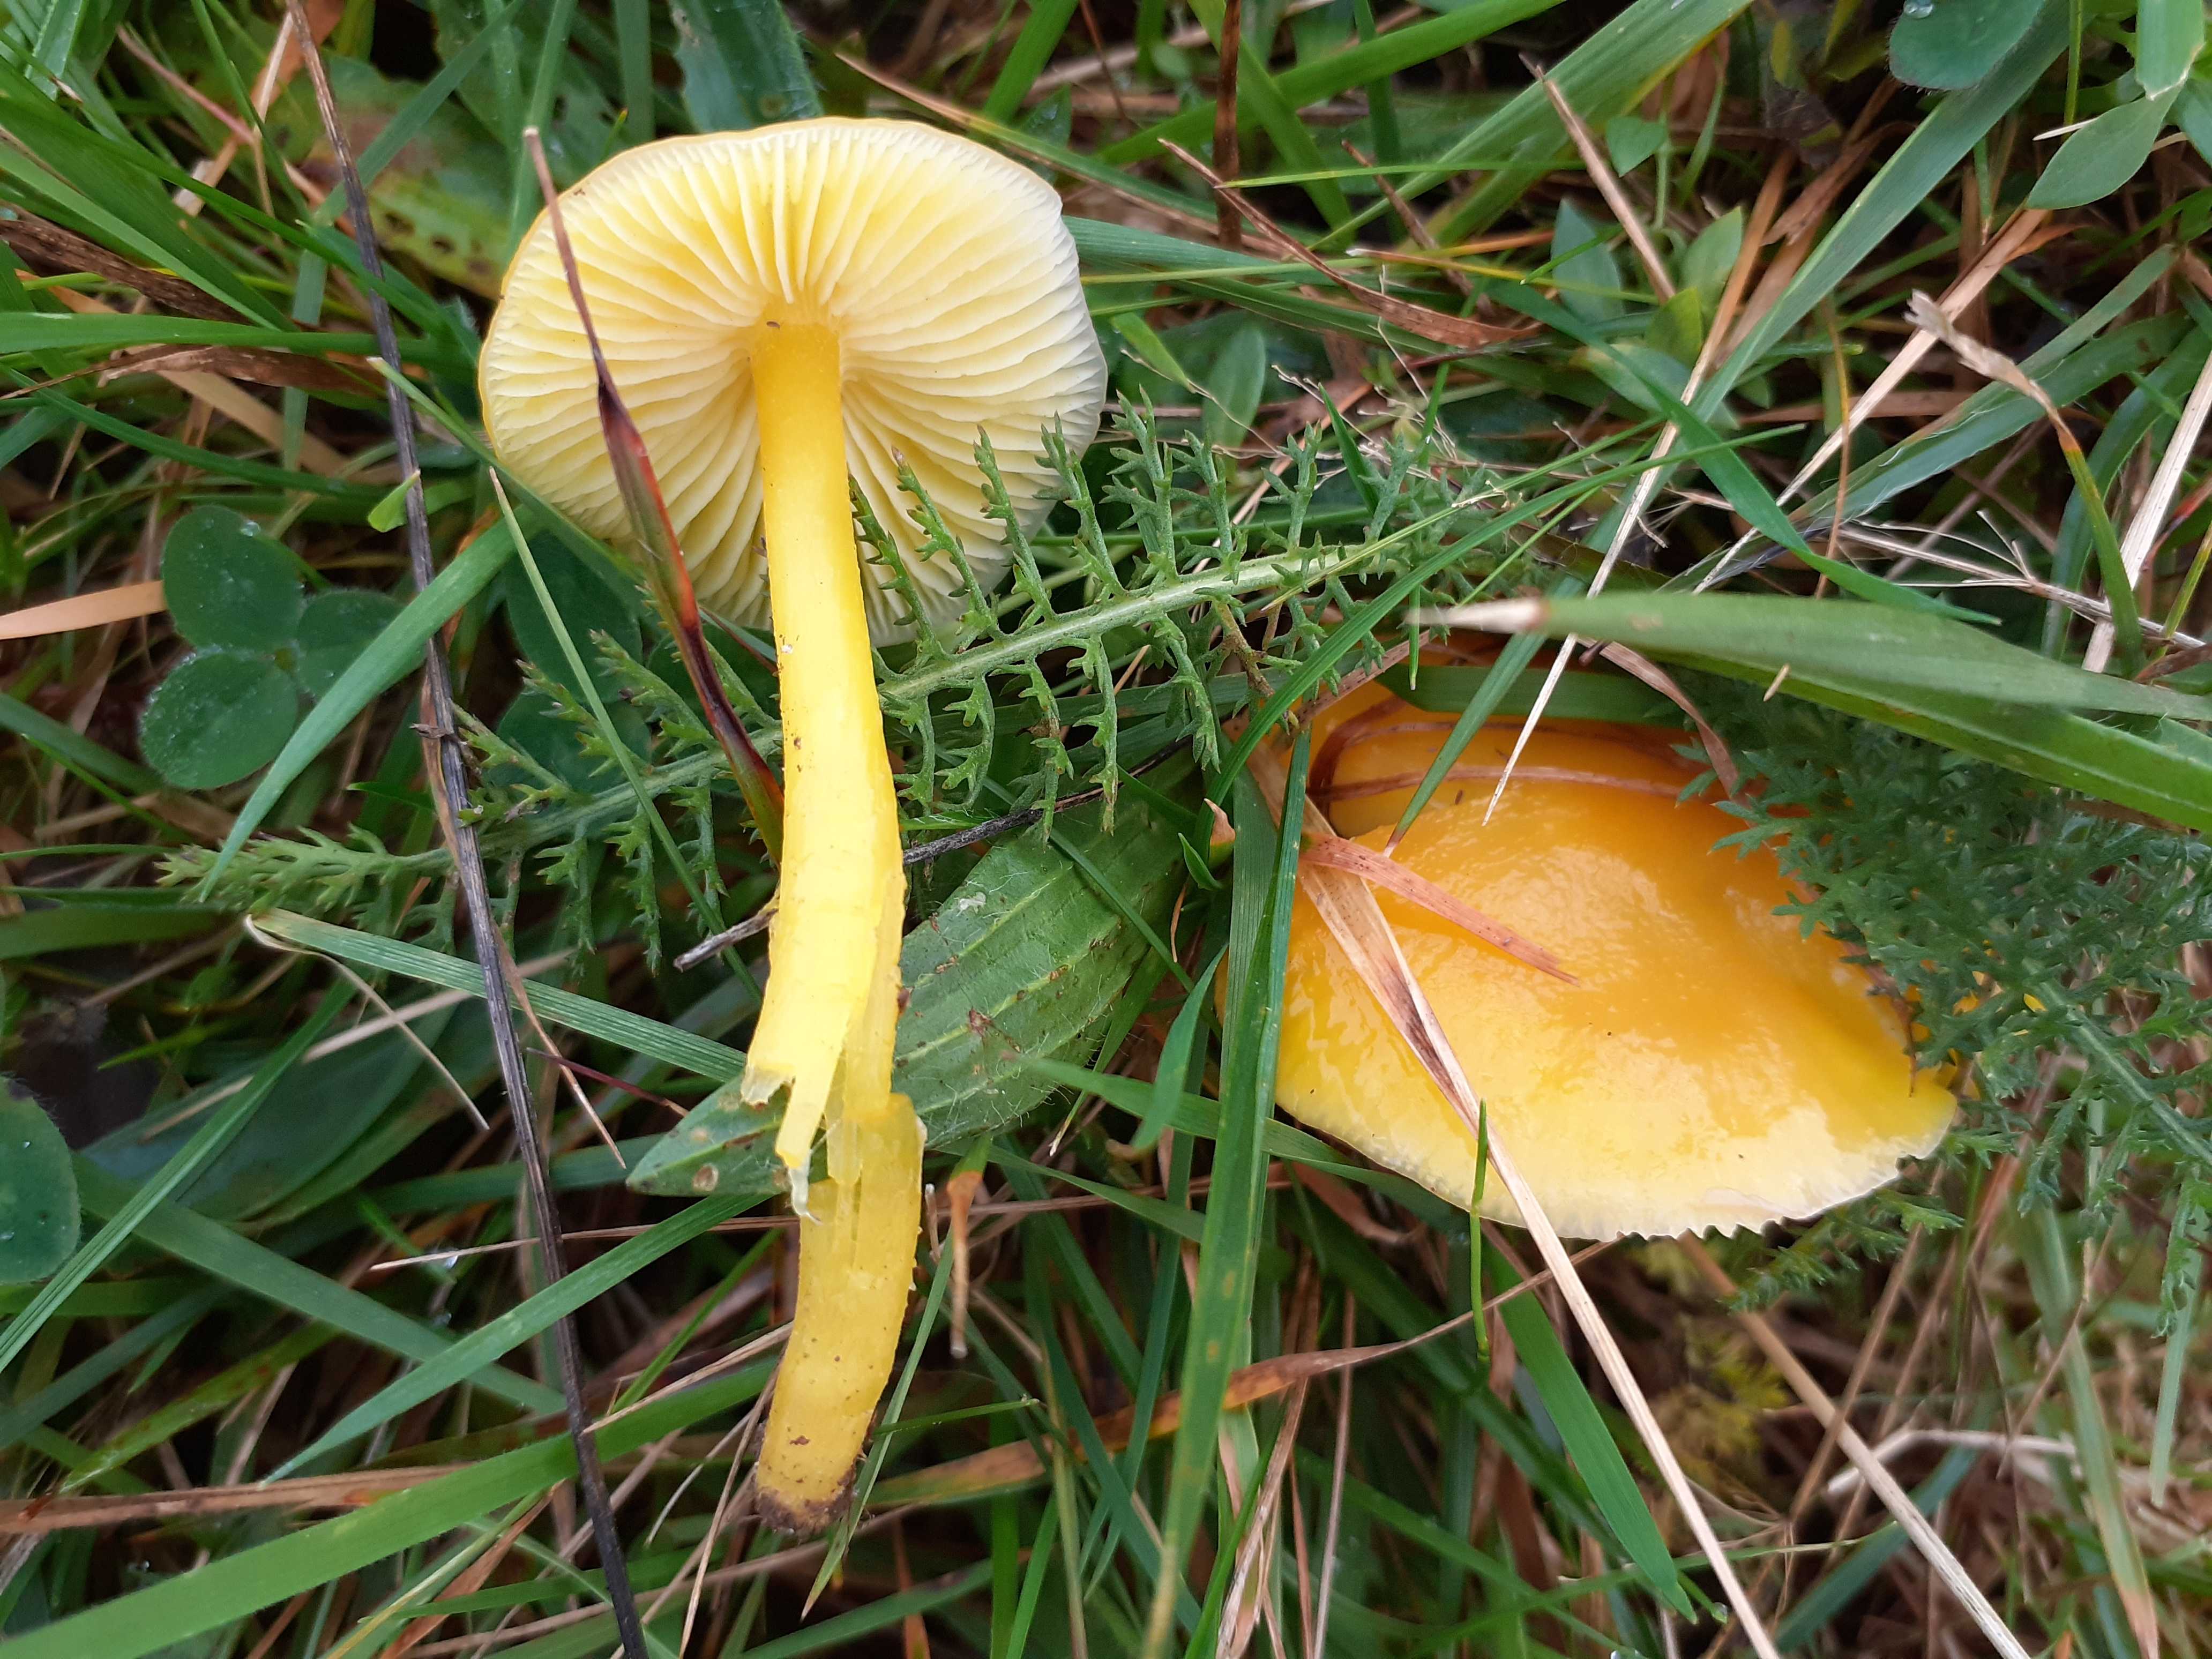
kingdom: Fungi
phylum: Basidiomycota
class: Agaricomycetes
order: Agaricales
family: Hygrophoraceae
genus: Hygrocybe
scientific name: Hygrocybe chlorophana
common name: gul vokshat
